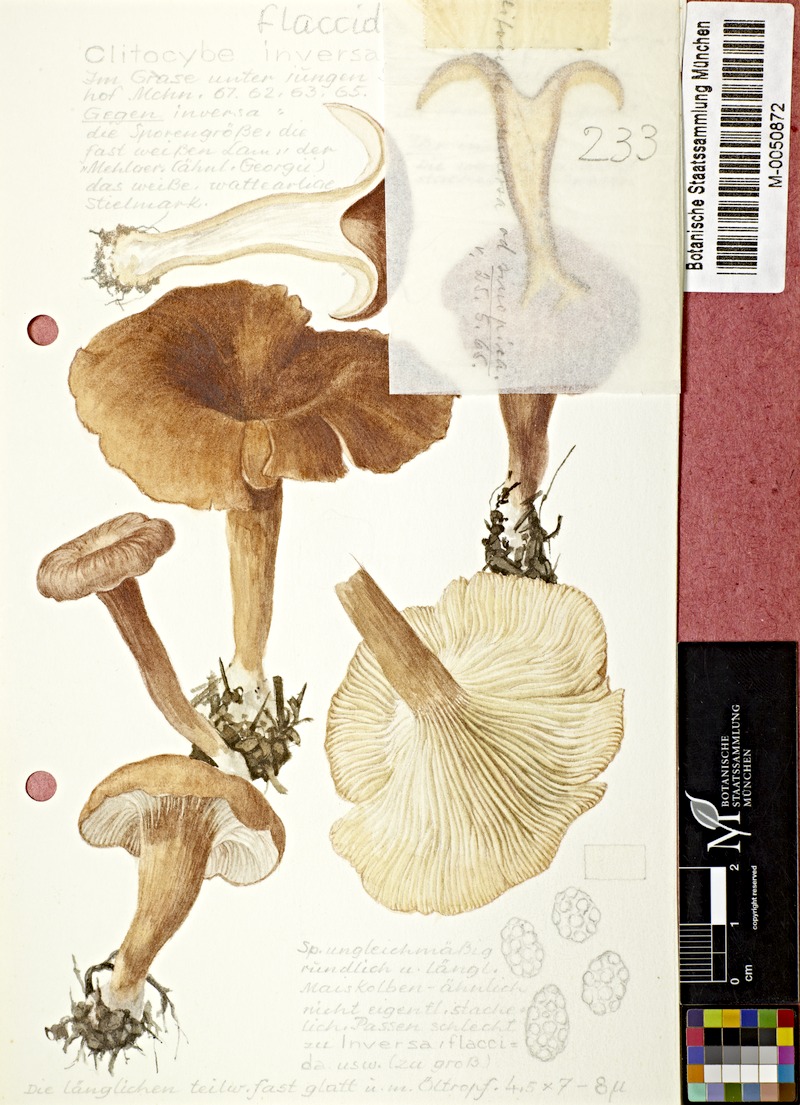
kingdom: Fungi
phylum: Basidiomycota
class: Agaricomycetes
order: Agaricales
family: Tricholomataceae
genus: Paralepista
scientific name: Paralepista flaccida
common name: Tawny funnel cap
